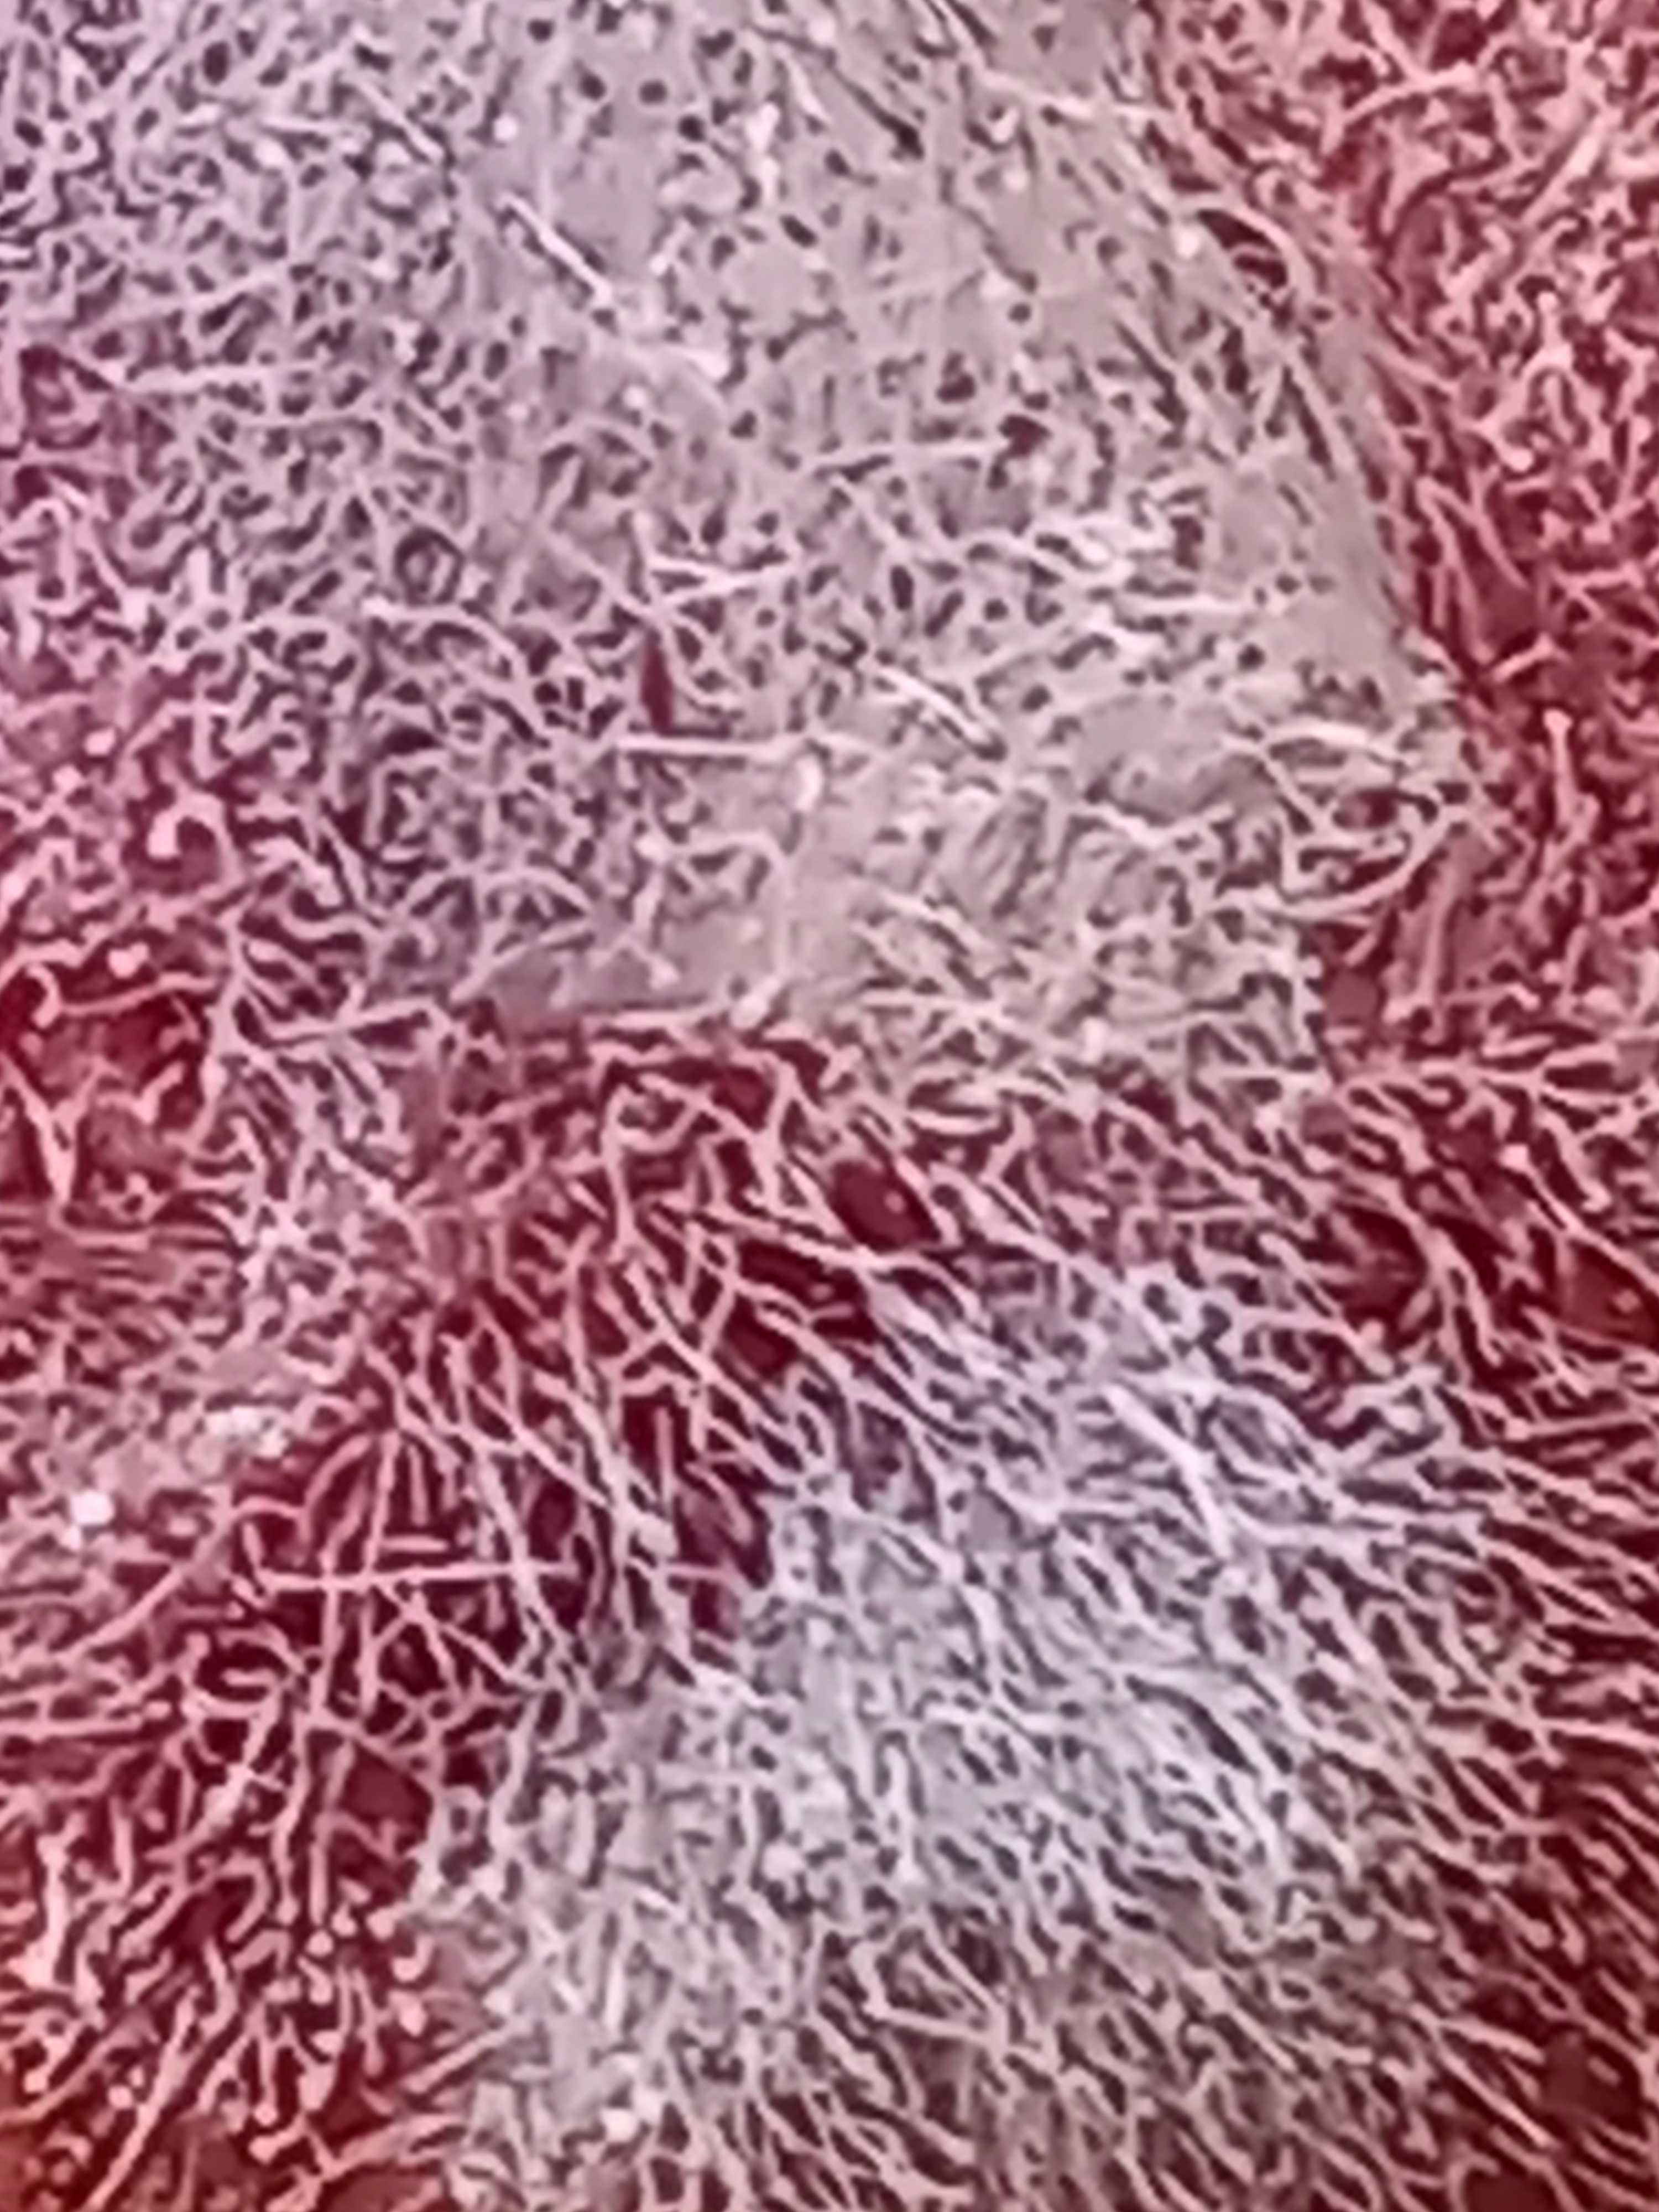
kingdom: Fungi
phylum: Mucoromycota
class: Mucoromycetes
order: Mucorales
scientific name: Mucorales
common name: mugordenen
